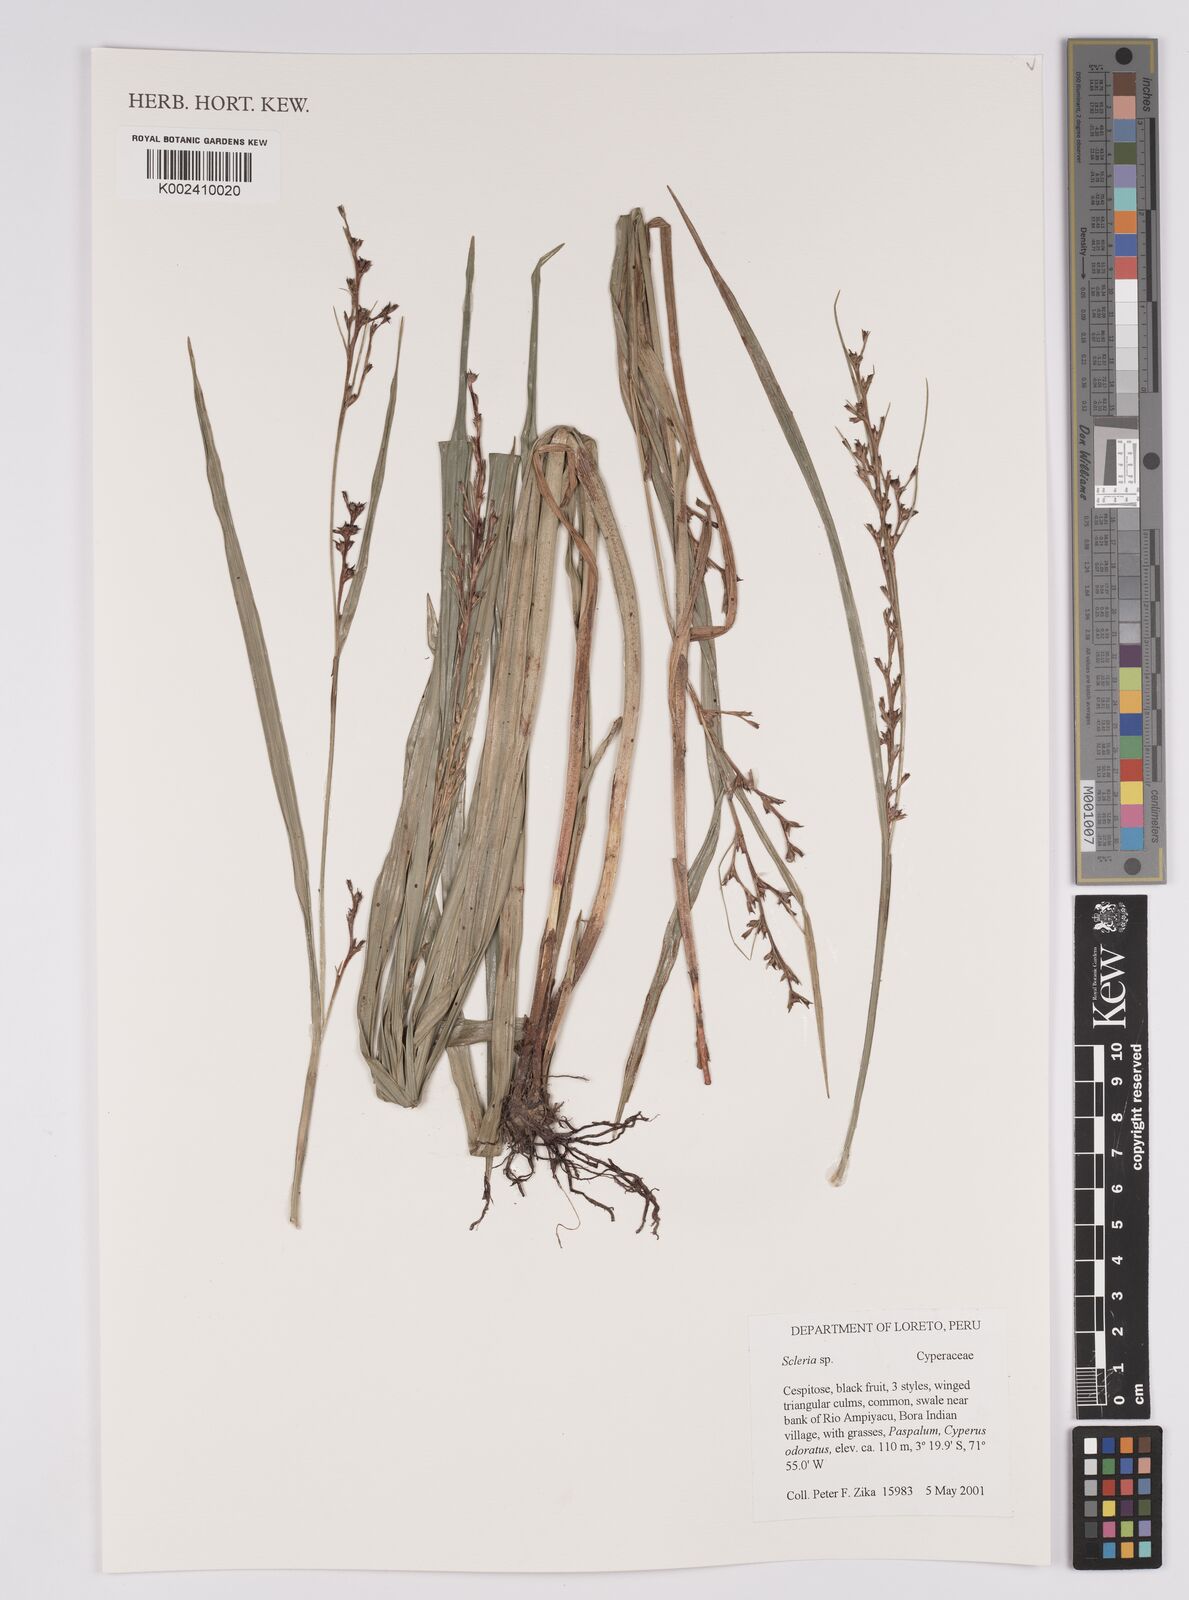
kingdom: Plantae
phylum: Tracheophyta
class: Liliopsida
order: Poales
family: Cyperaceae
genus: Scleria
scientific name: Scleria
